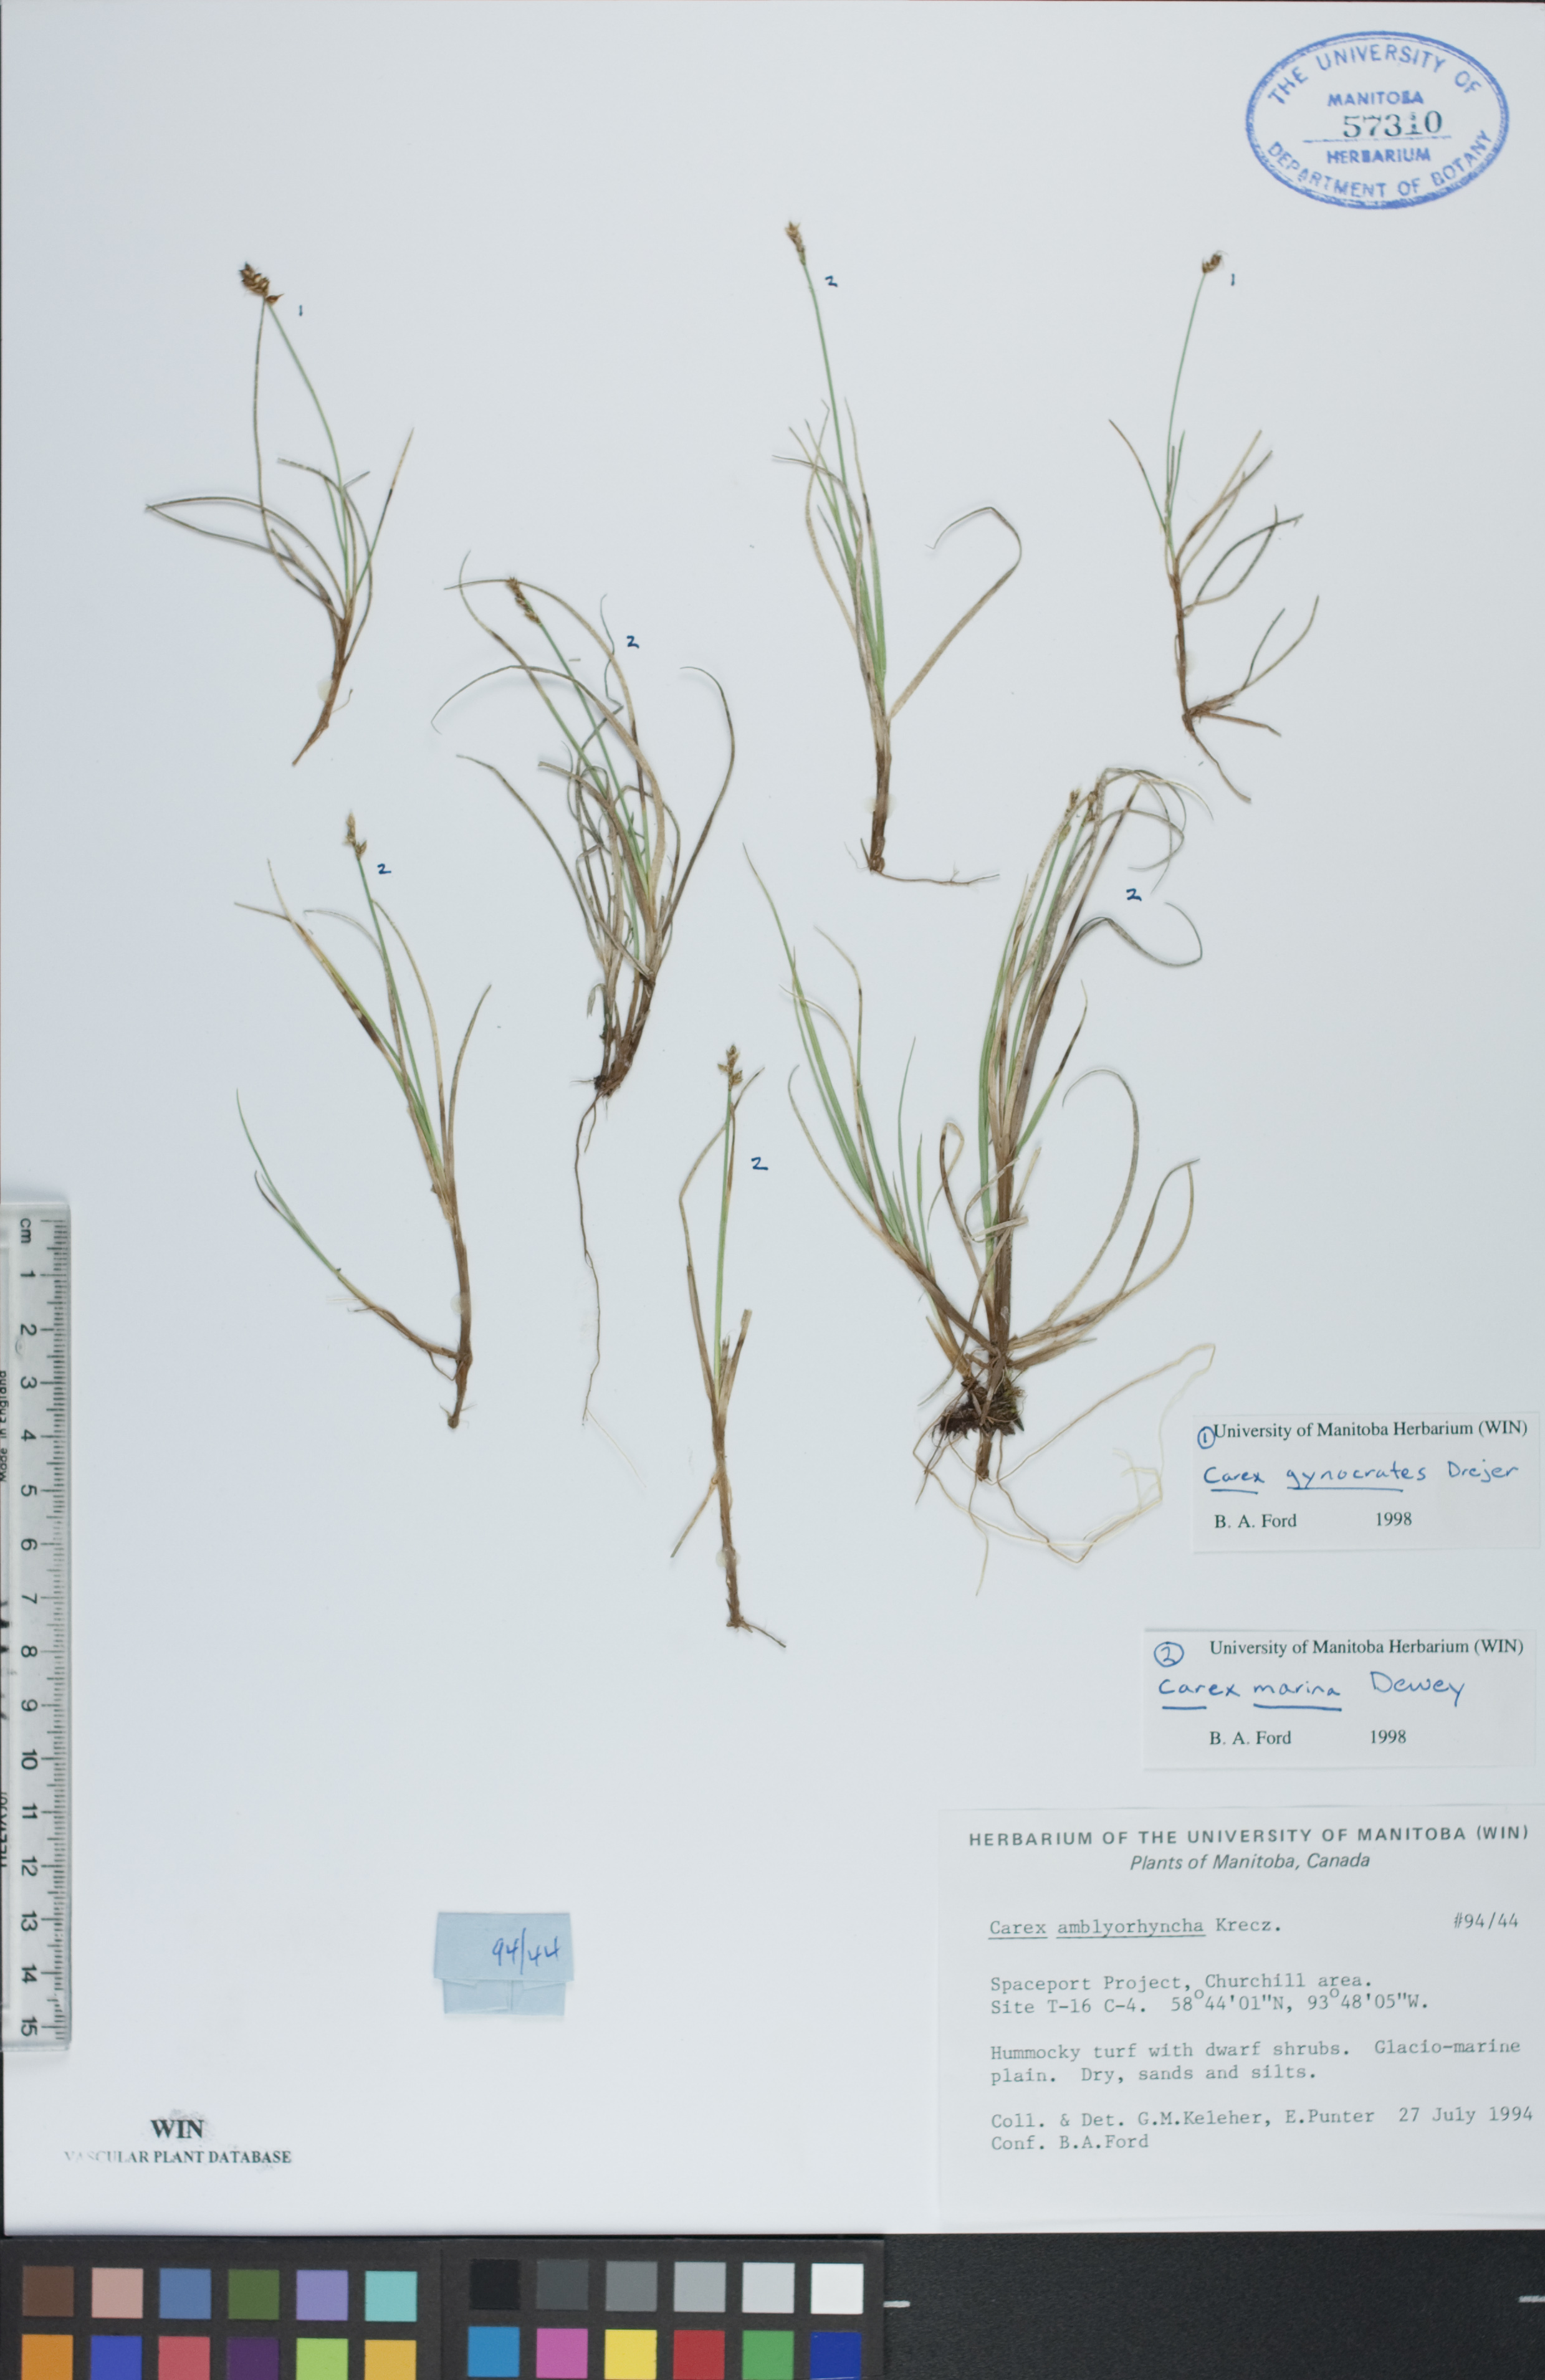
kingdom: Plantae
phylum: Tracheophyta
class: Liliopsida
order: Poales
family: Cyperaceae
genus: Carex
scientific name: Carex marina
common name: Seashore sedge
